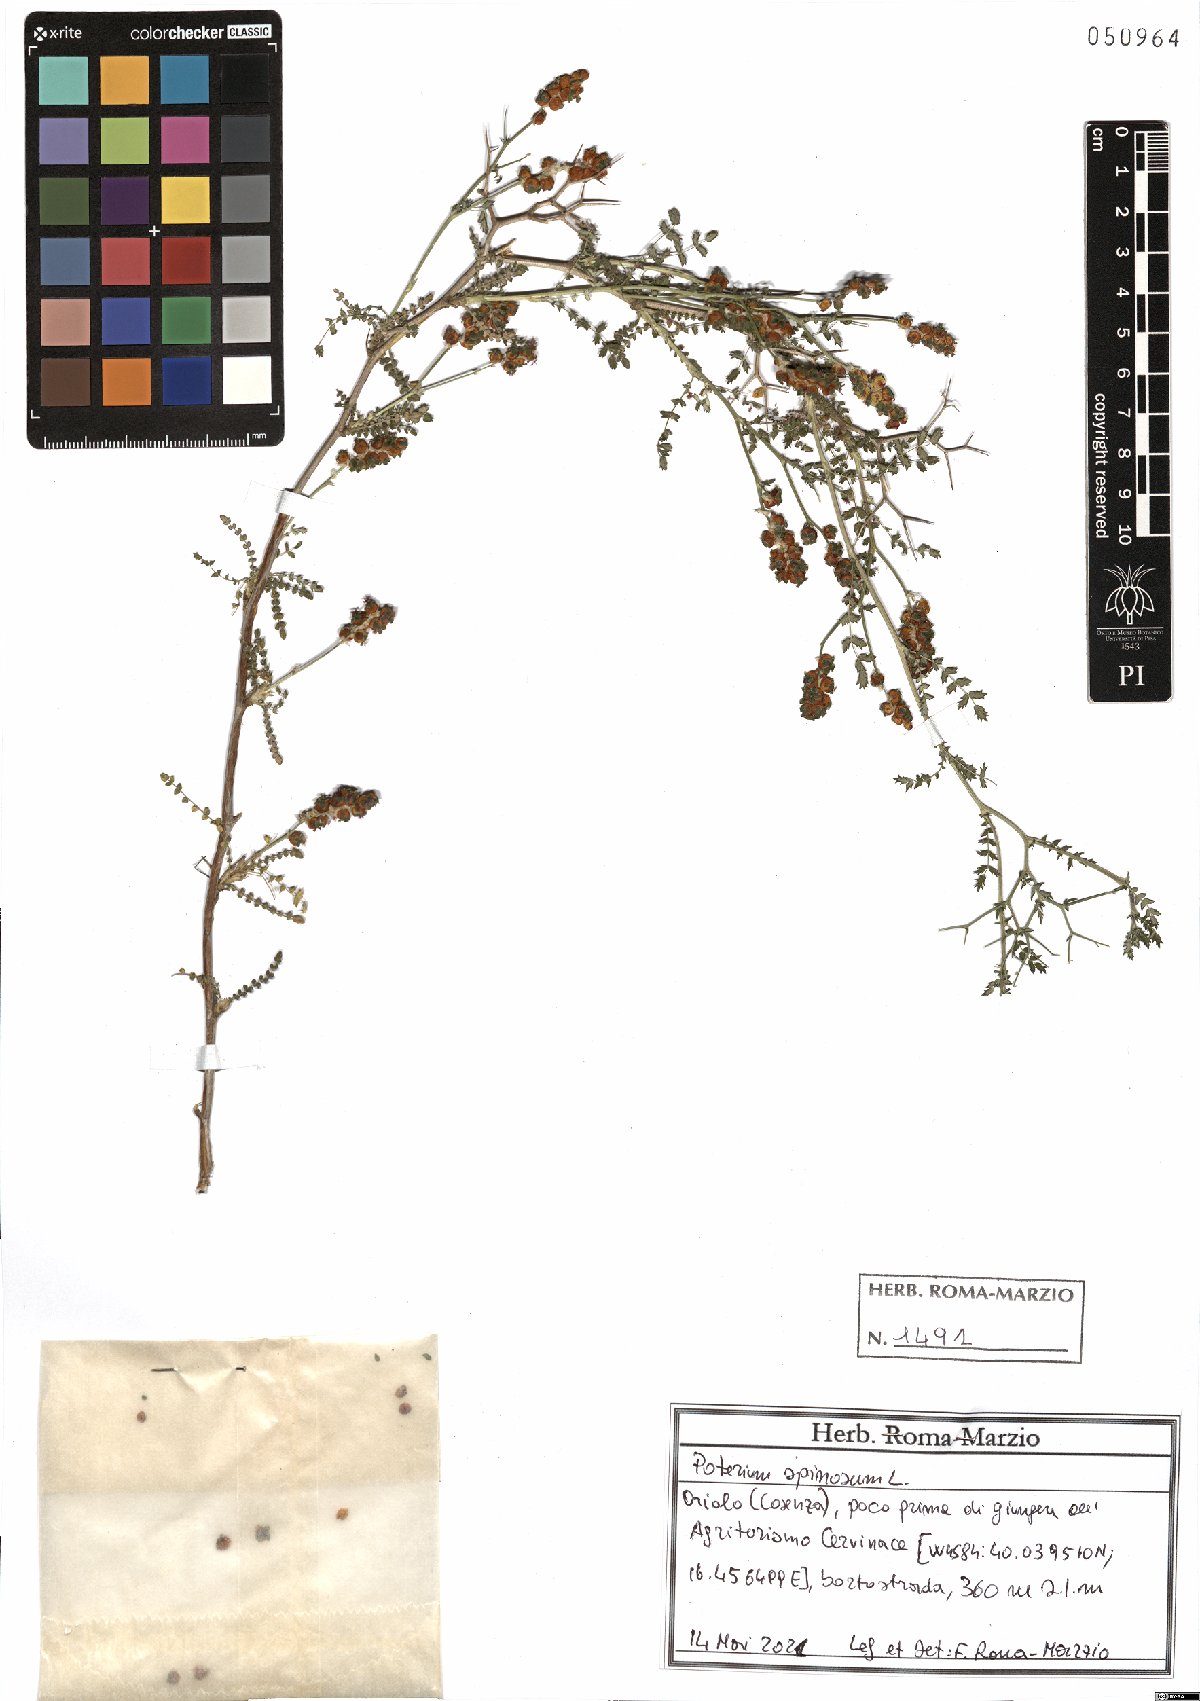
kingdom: Plantae
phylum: Tracheophyta
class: Magnoliopsida
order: Rosales
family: Rosaceae
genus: Sarcopoterium
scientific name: Sarcopoterium spinosum
